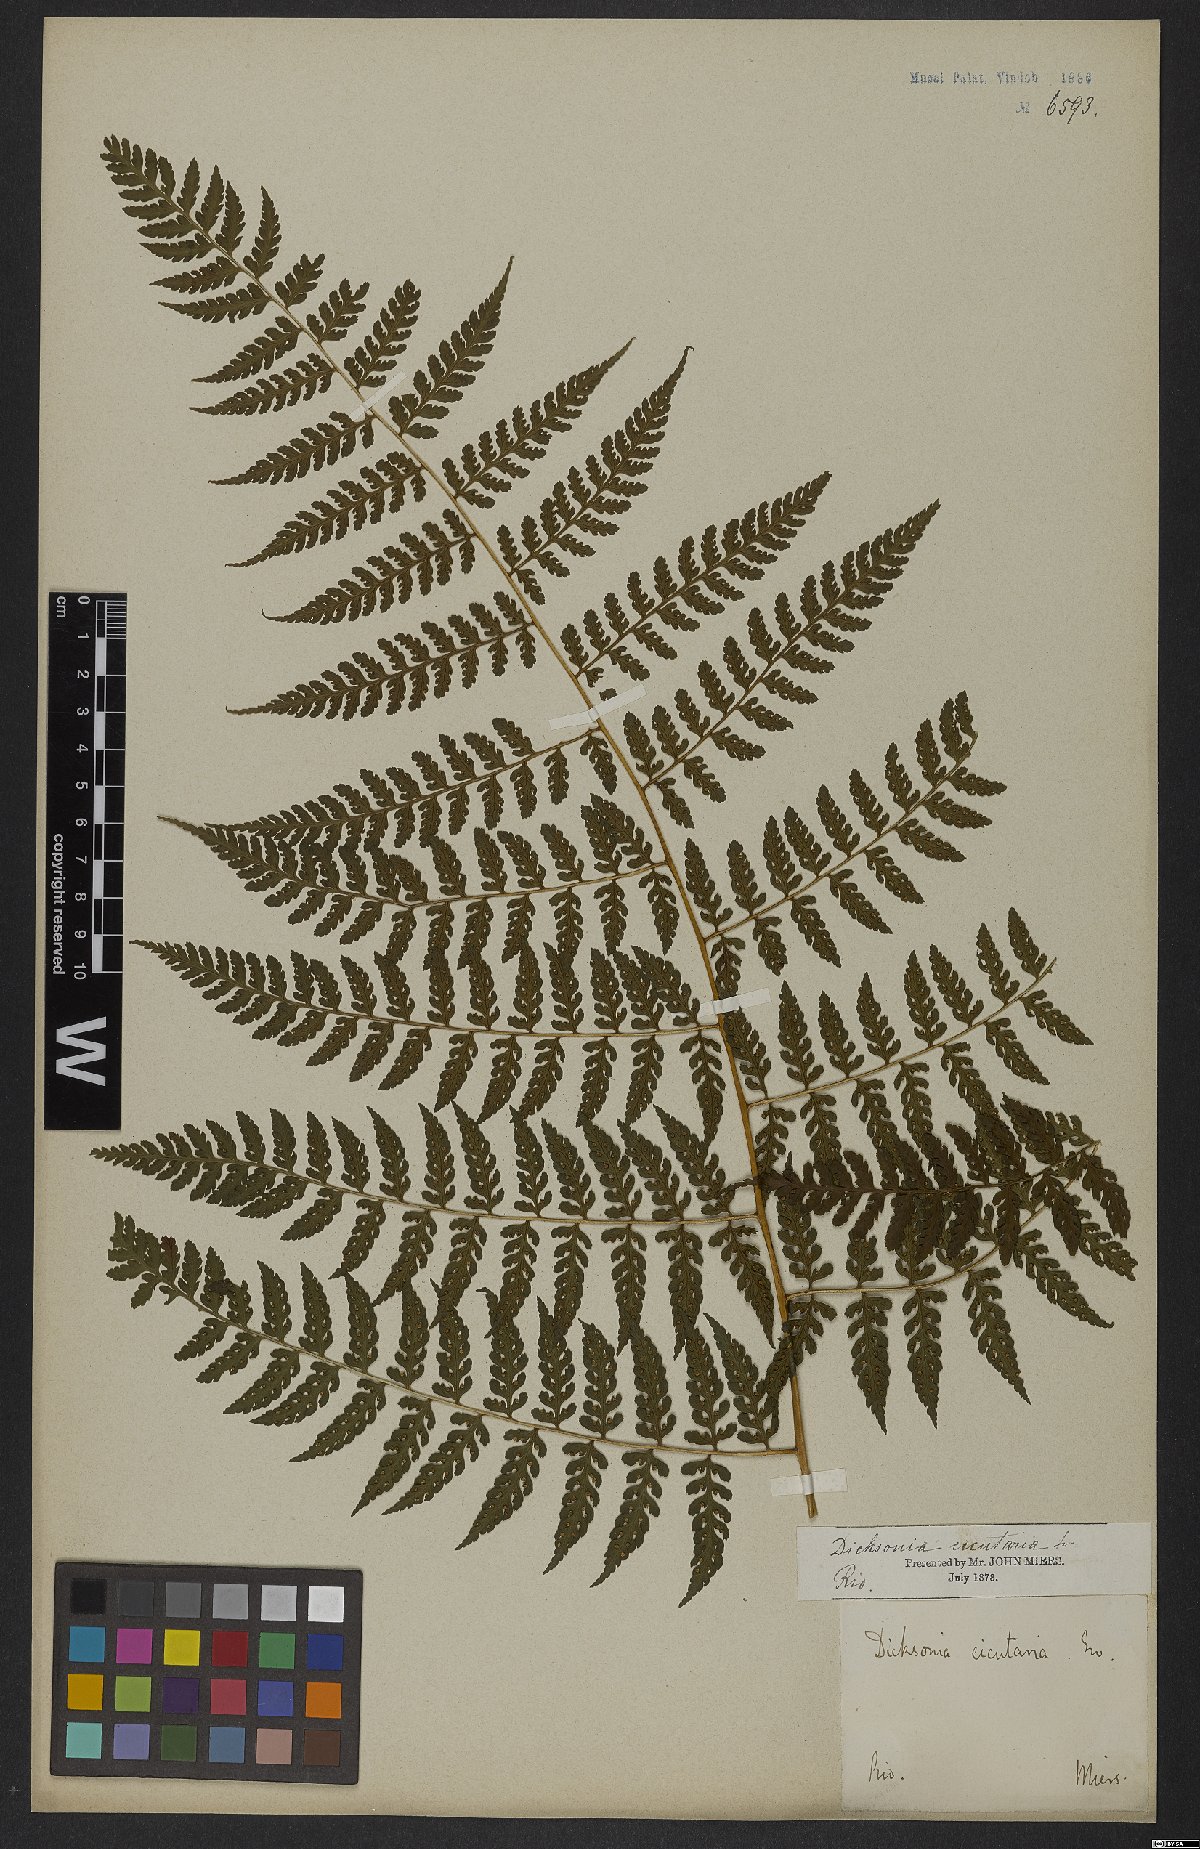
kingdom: Plantae
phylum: Tracheophyta
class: Polypodiopsida
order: Polypodiales
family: Dennstaedtiaceae
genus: Dennstaedtia
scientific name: Dennstaedtia cicutaria
